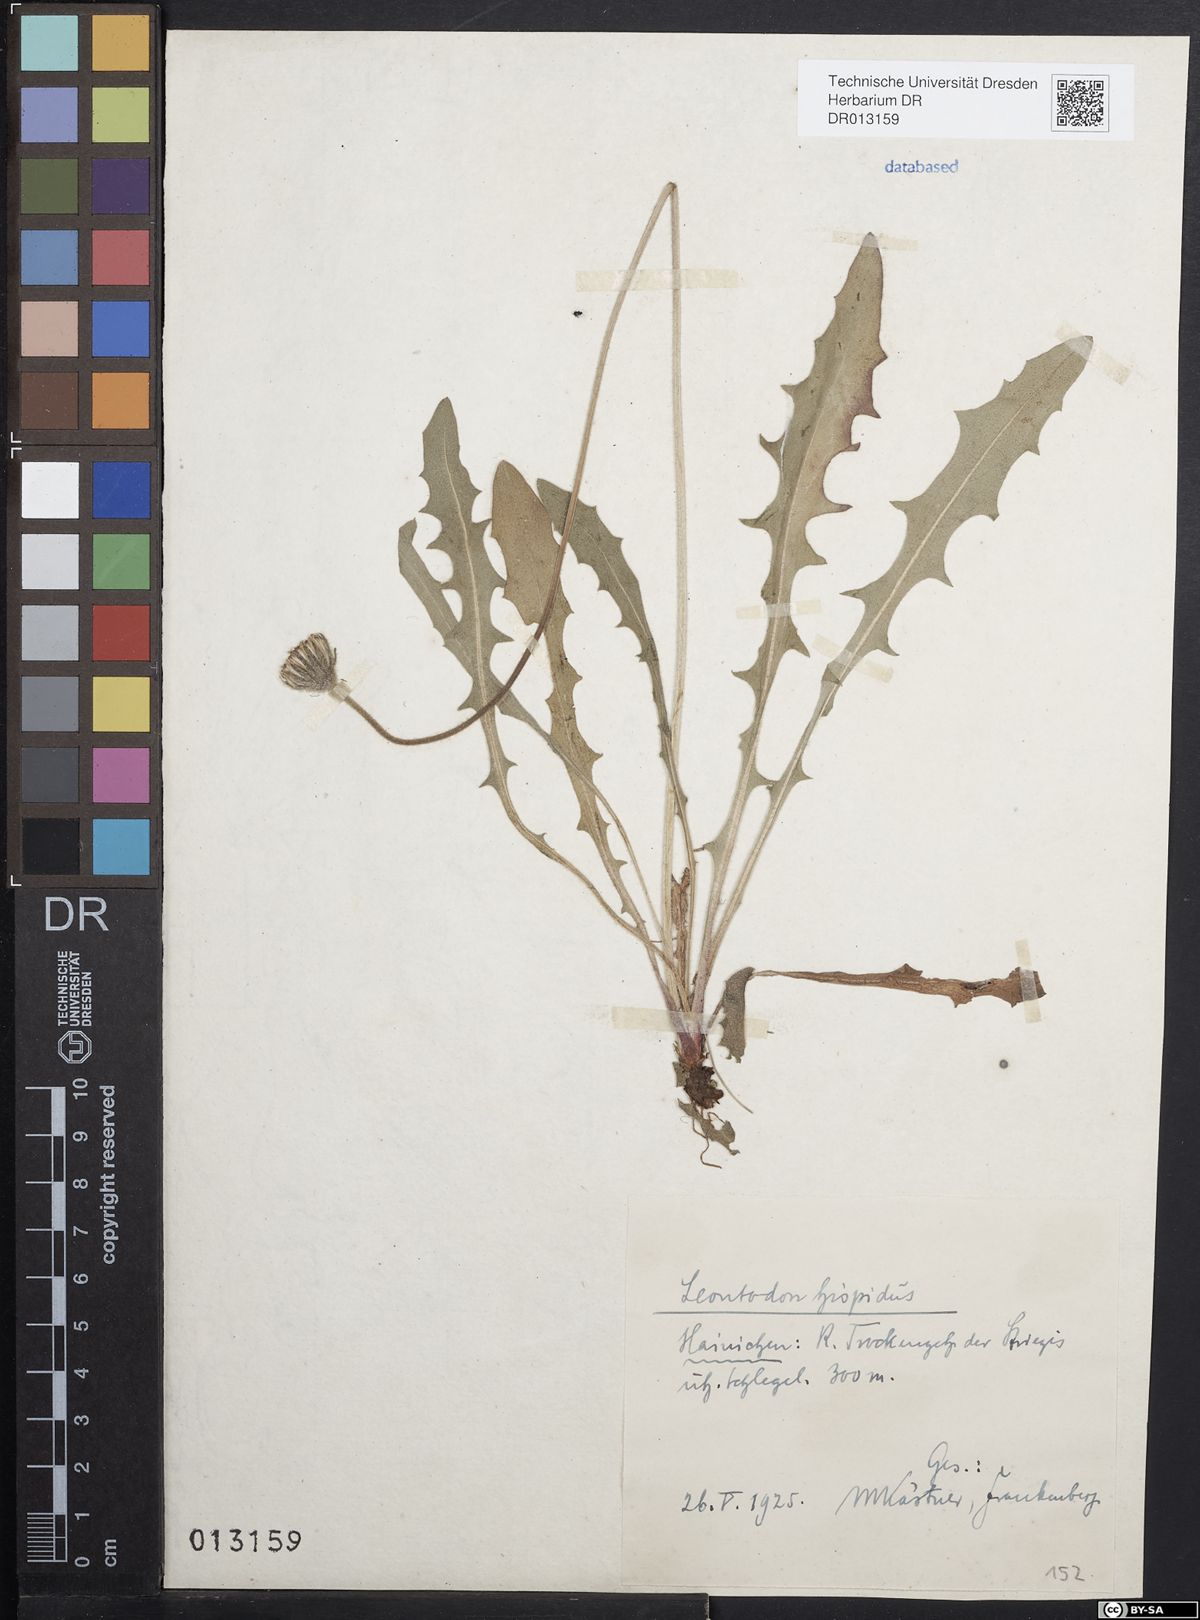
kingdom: Plantae
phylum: Tracheophyta
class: Magnoliopsida
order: Asterales
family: Asteraceae
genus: Leontodon
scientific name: Leontodon hispidus
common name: Rough hawkbit
